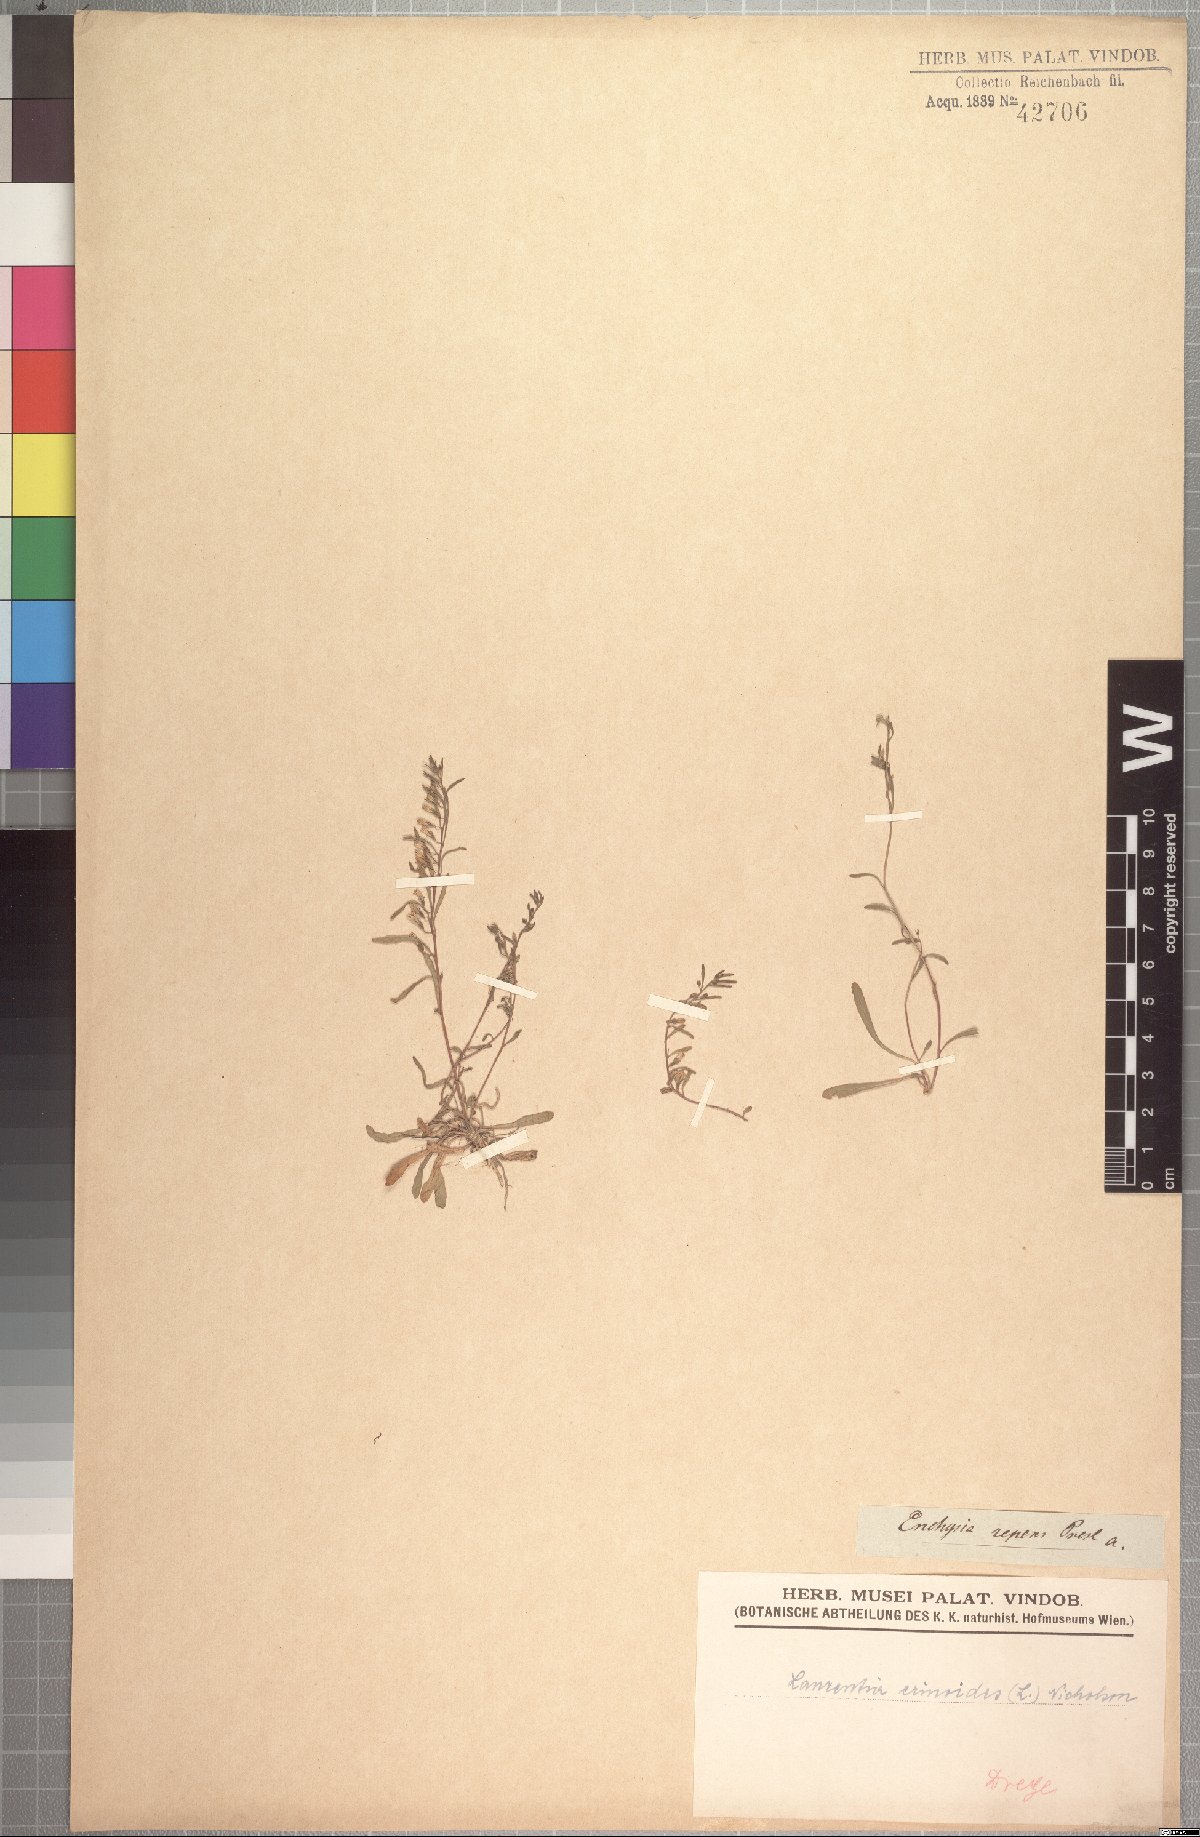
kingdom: Plantae
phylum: Tracheophyta
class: Magnoliopsida
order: Asterales
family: Campanulaceae
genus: Wimmerella
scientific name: Wimmerella secunda
